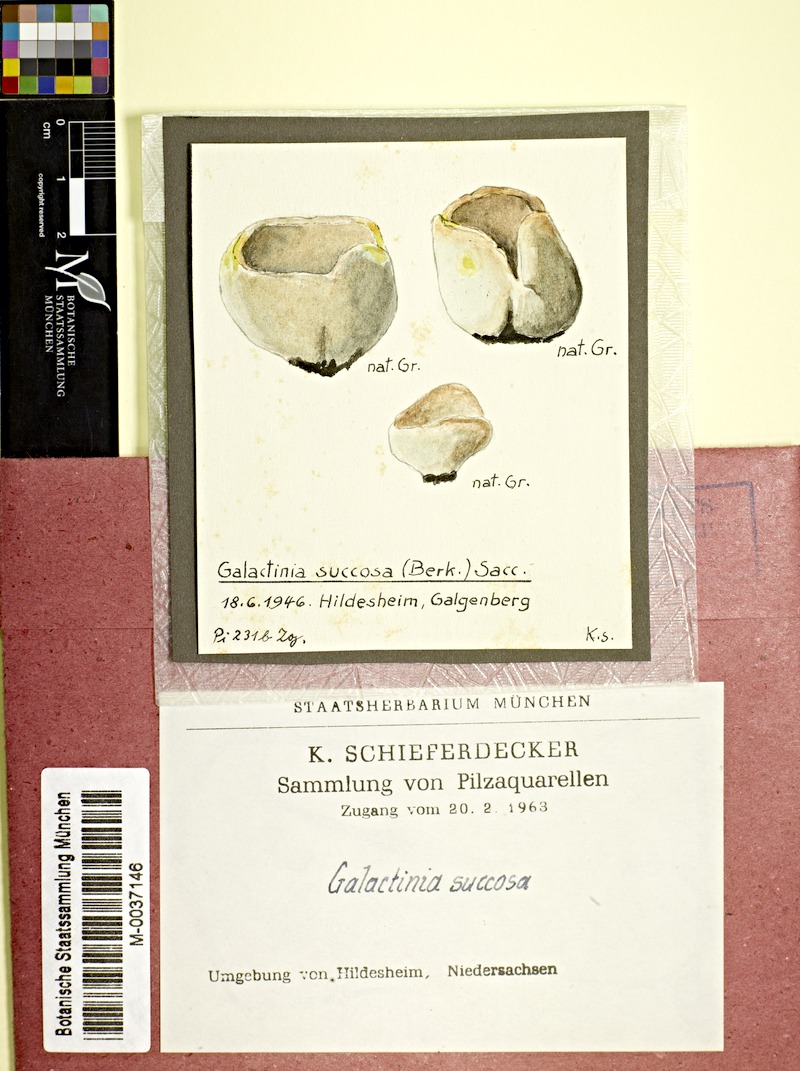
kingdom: Fungi
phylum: Ascomycota
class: Pezizomycetes
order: Pezizales
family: Pezizaceae
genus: Paragalactinia
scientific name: Paragalactinia succosa
